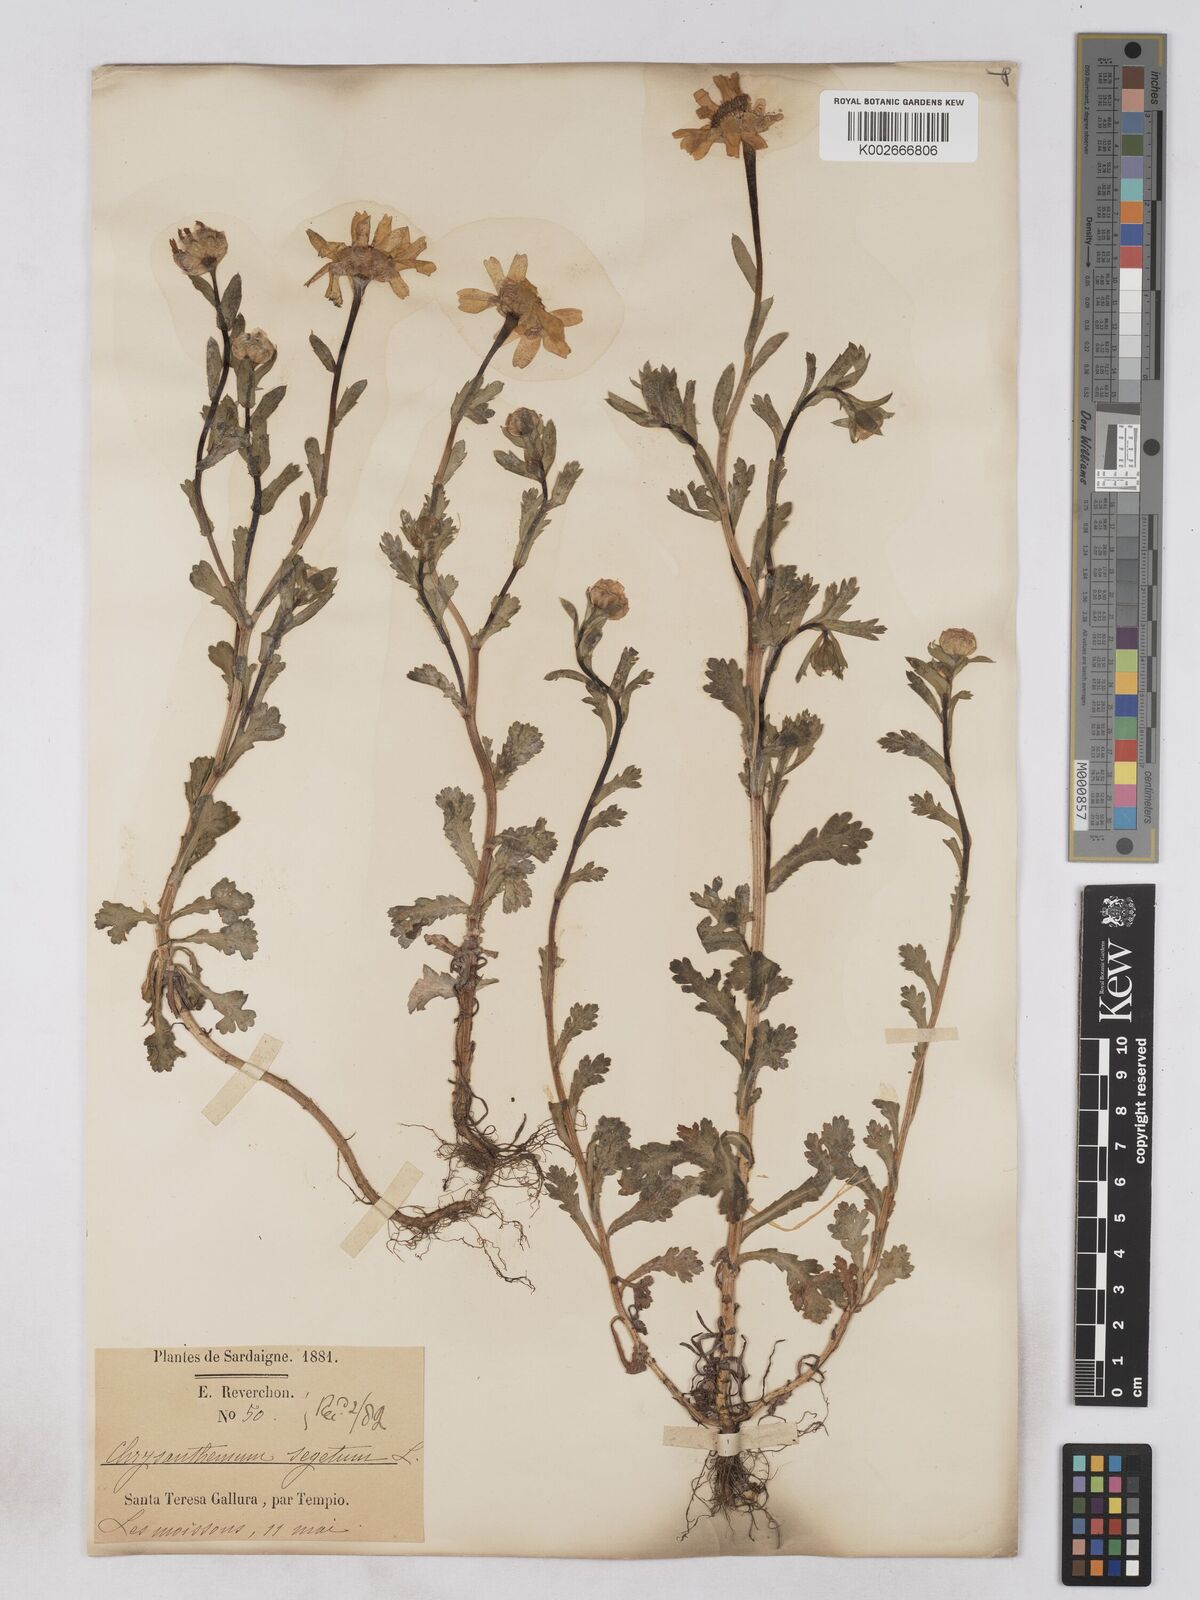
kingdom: Plantae
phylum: Tracheophyta
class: Magnoliopsida
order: Asterales
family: Asteraceae
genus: Glebionis
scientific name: Glebionis segetum
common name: Corndaisy
